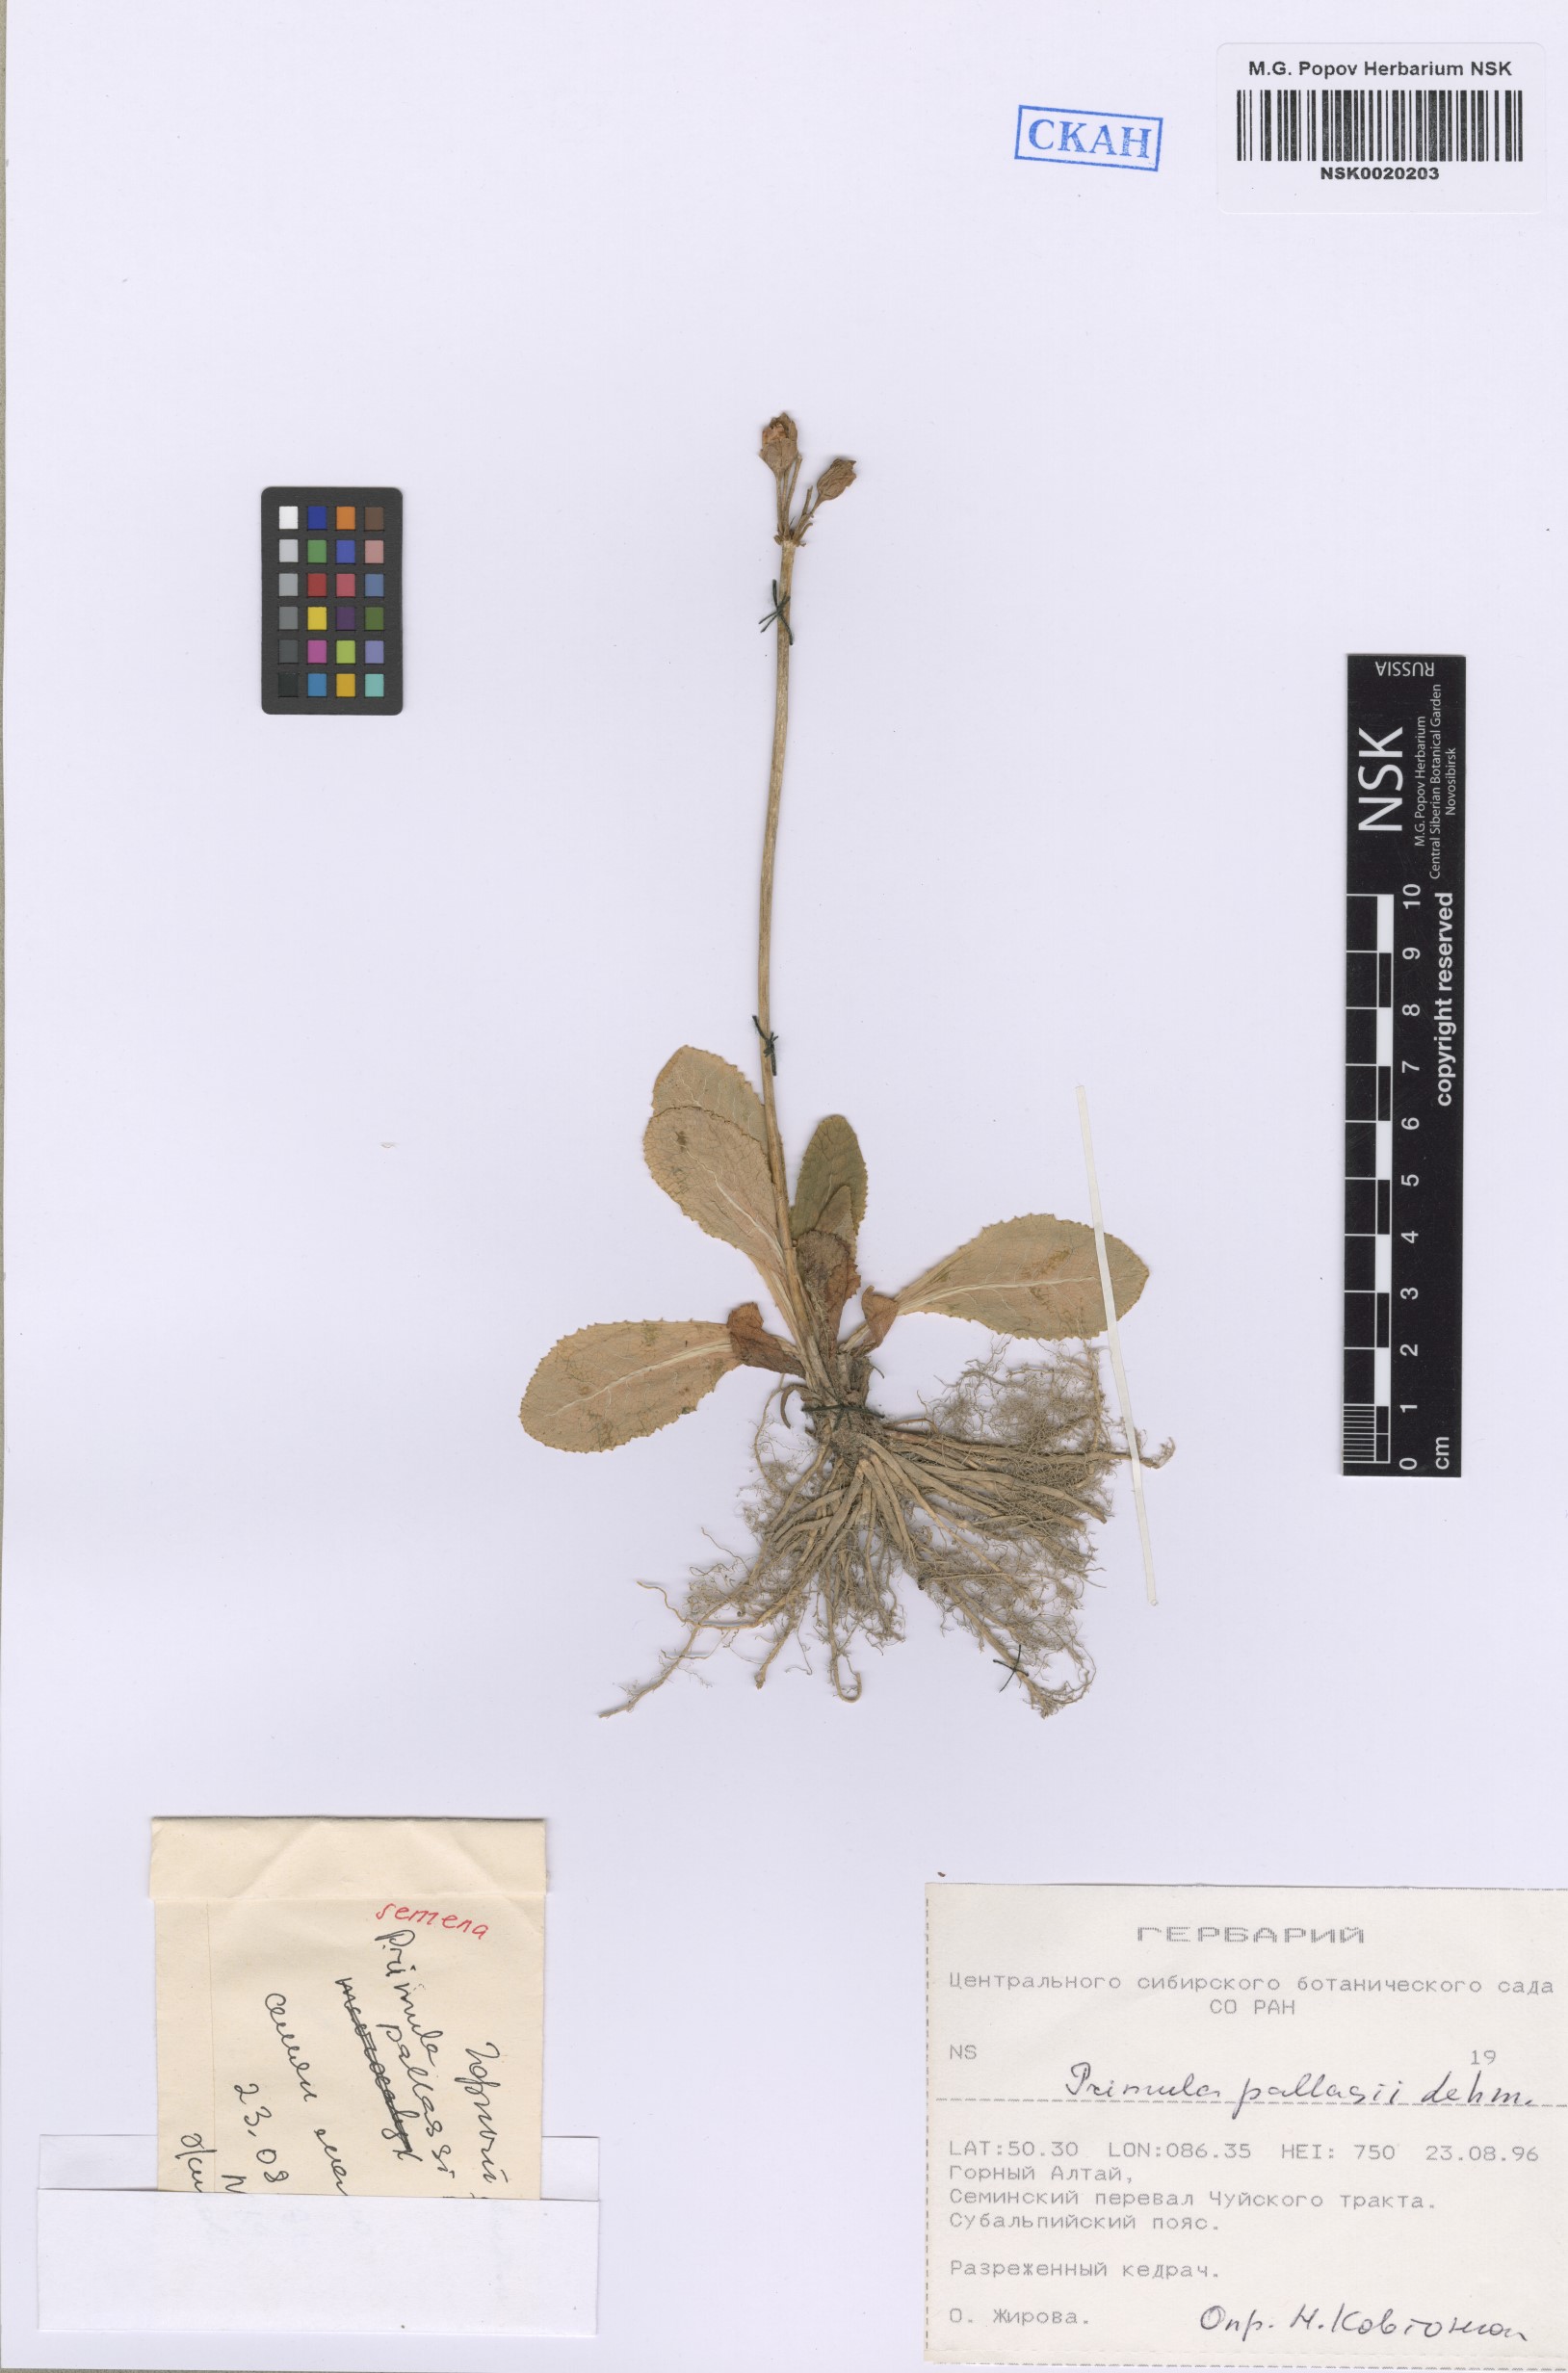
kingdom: Plantae
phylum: Tracheophyta
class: Magnoliopsida
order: Ericales
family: Primulaceae
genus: Primula
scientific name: Primula elatior
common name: Oxlip
